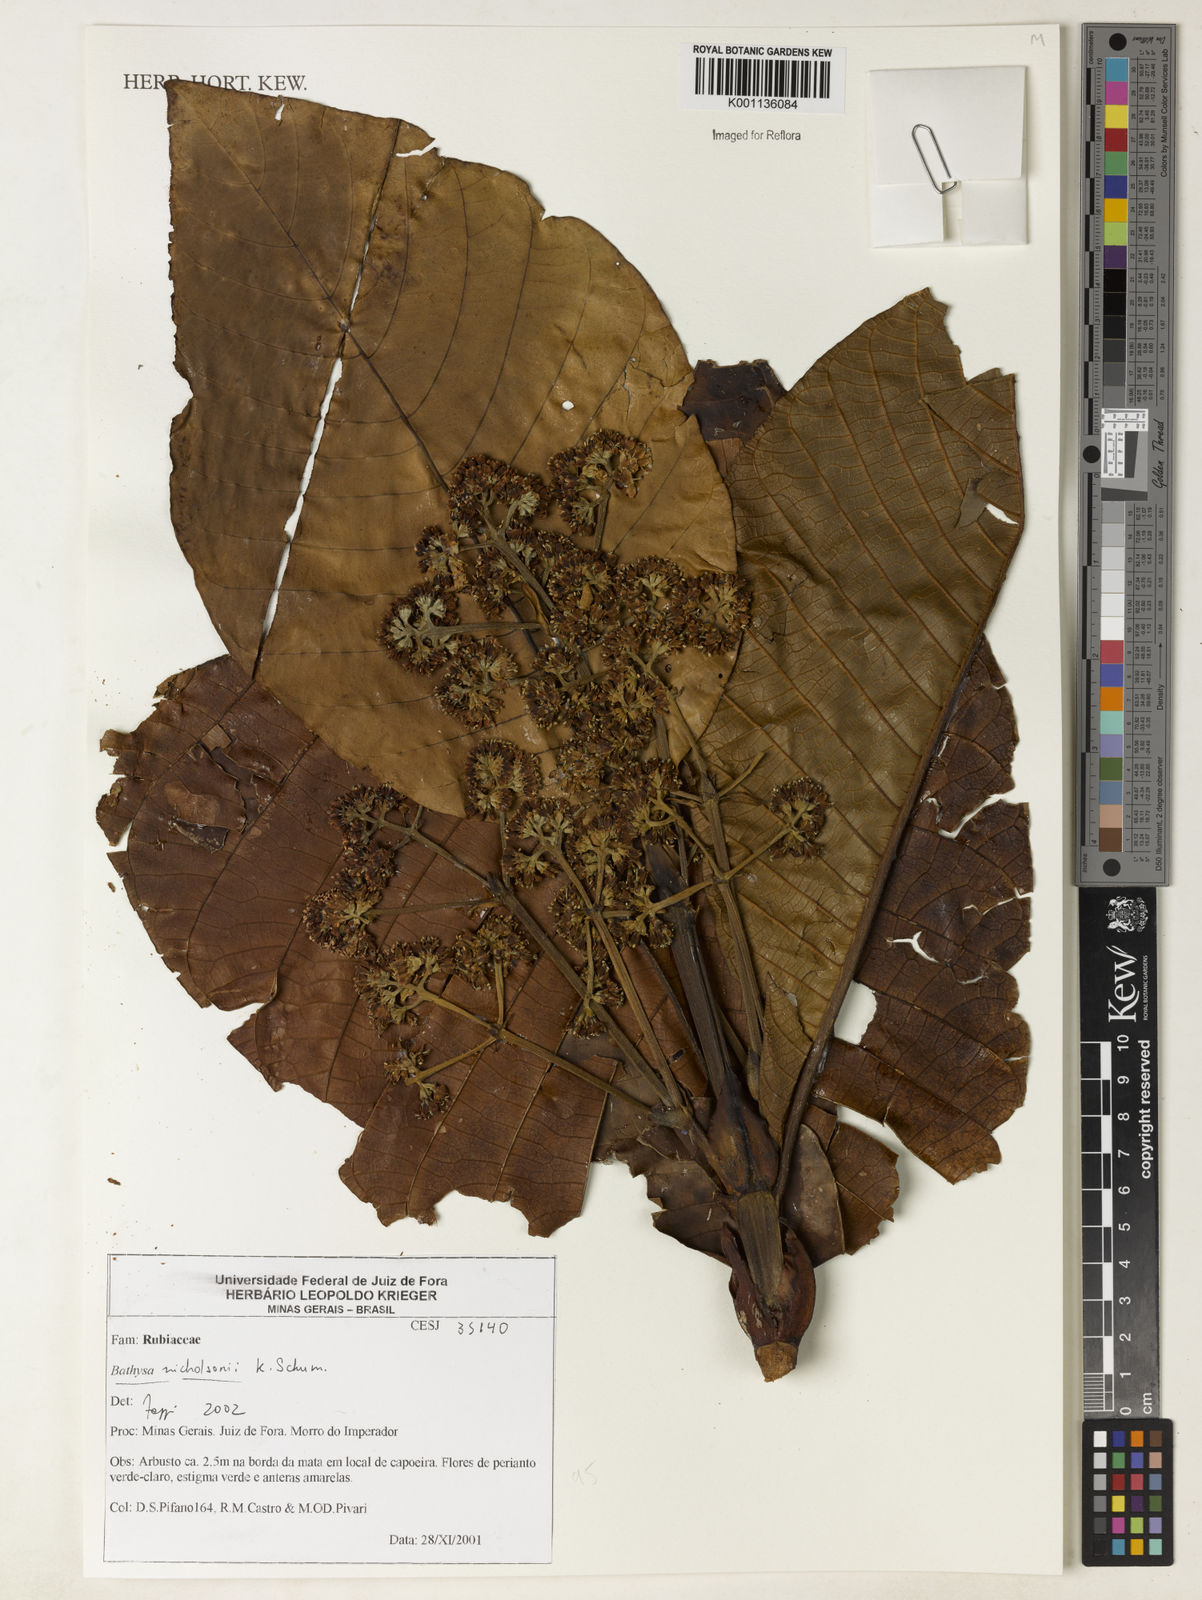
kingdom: Plantae
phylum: Tracheophyta
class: Magnoliopsida
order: Gentianales
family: Rubiaceae
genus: Bathysa
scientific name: Bathysa nicholsonii
